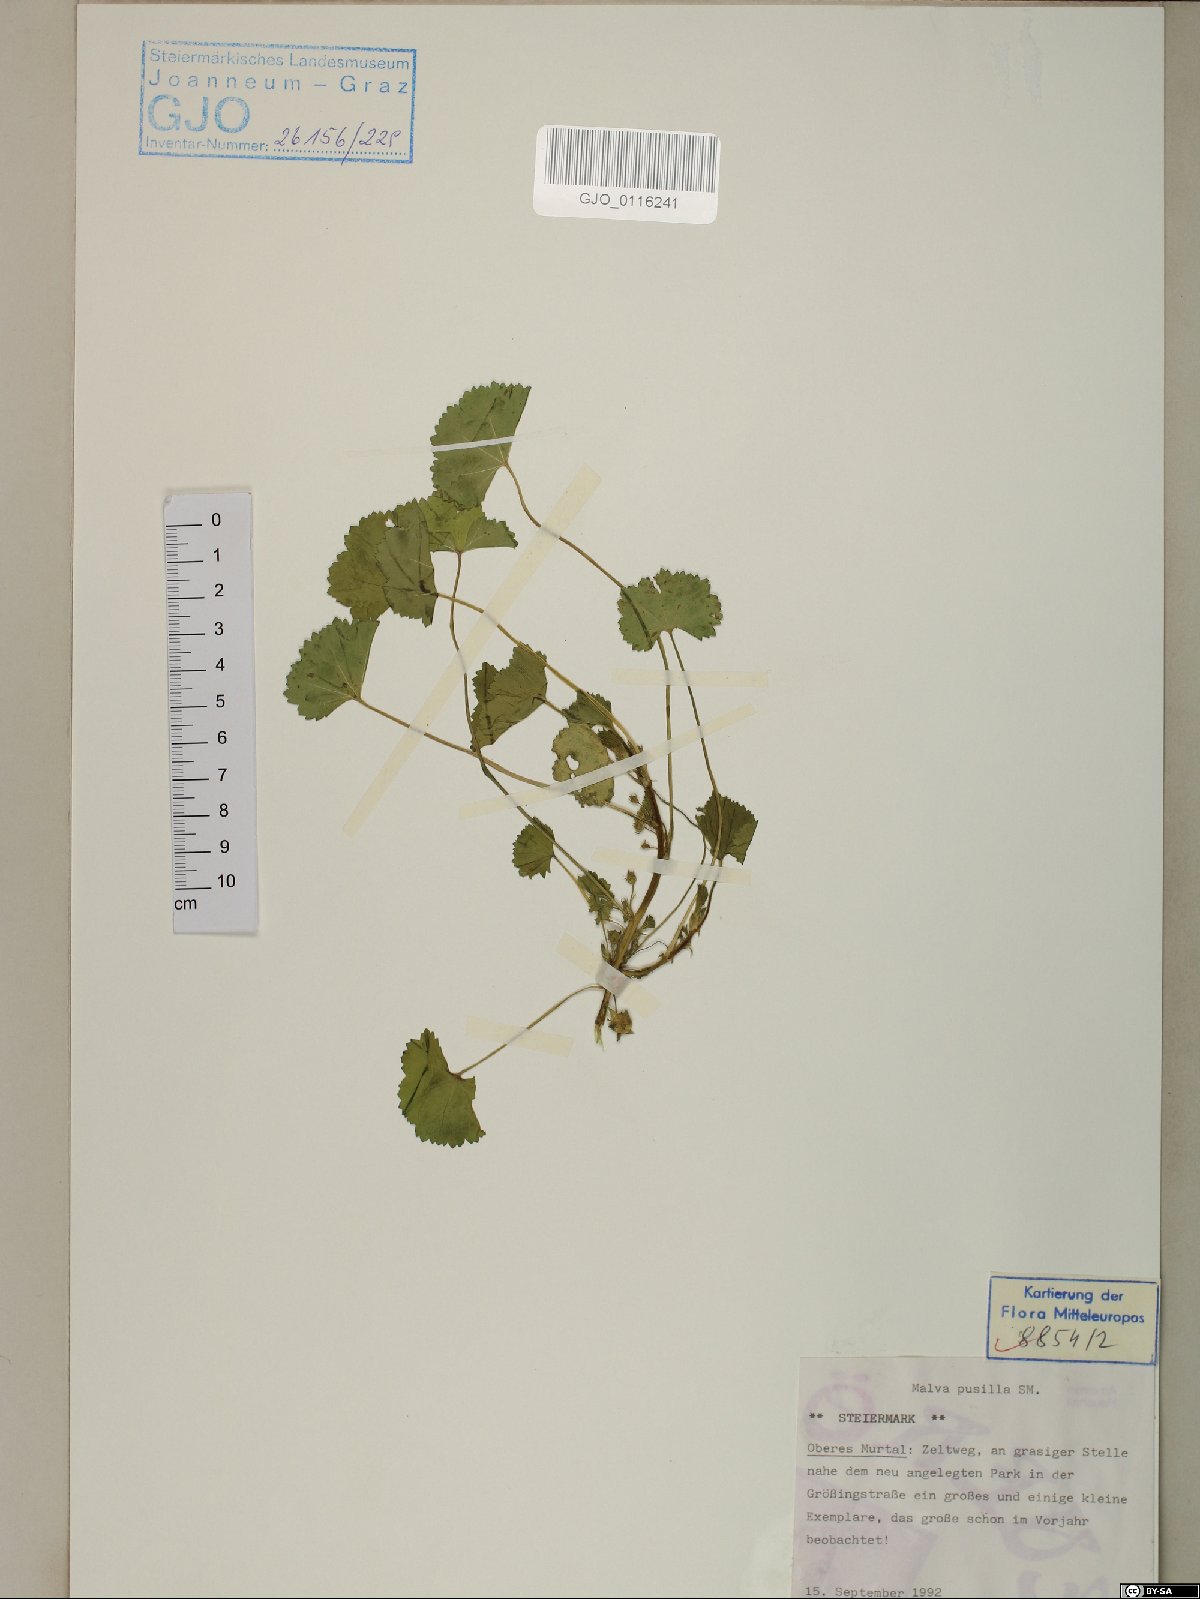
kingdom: Plantae
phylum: Tracheophyta
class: Magnoliopsida
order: Malvales
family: Malvaceae
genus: Malva
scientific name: Malva pusilla
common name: Small mallow
